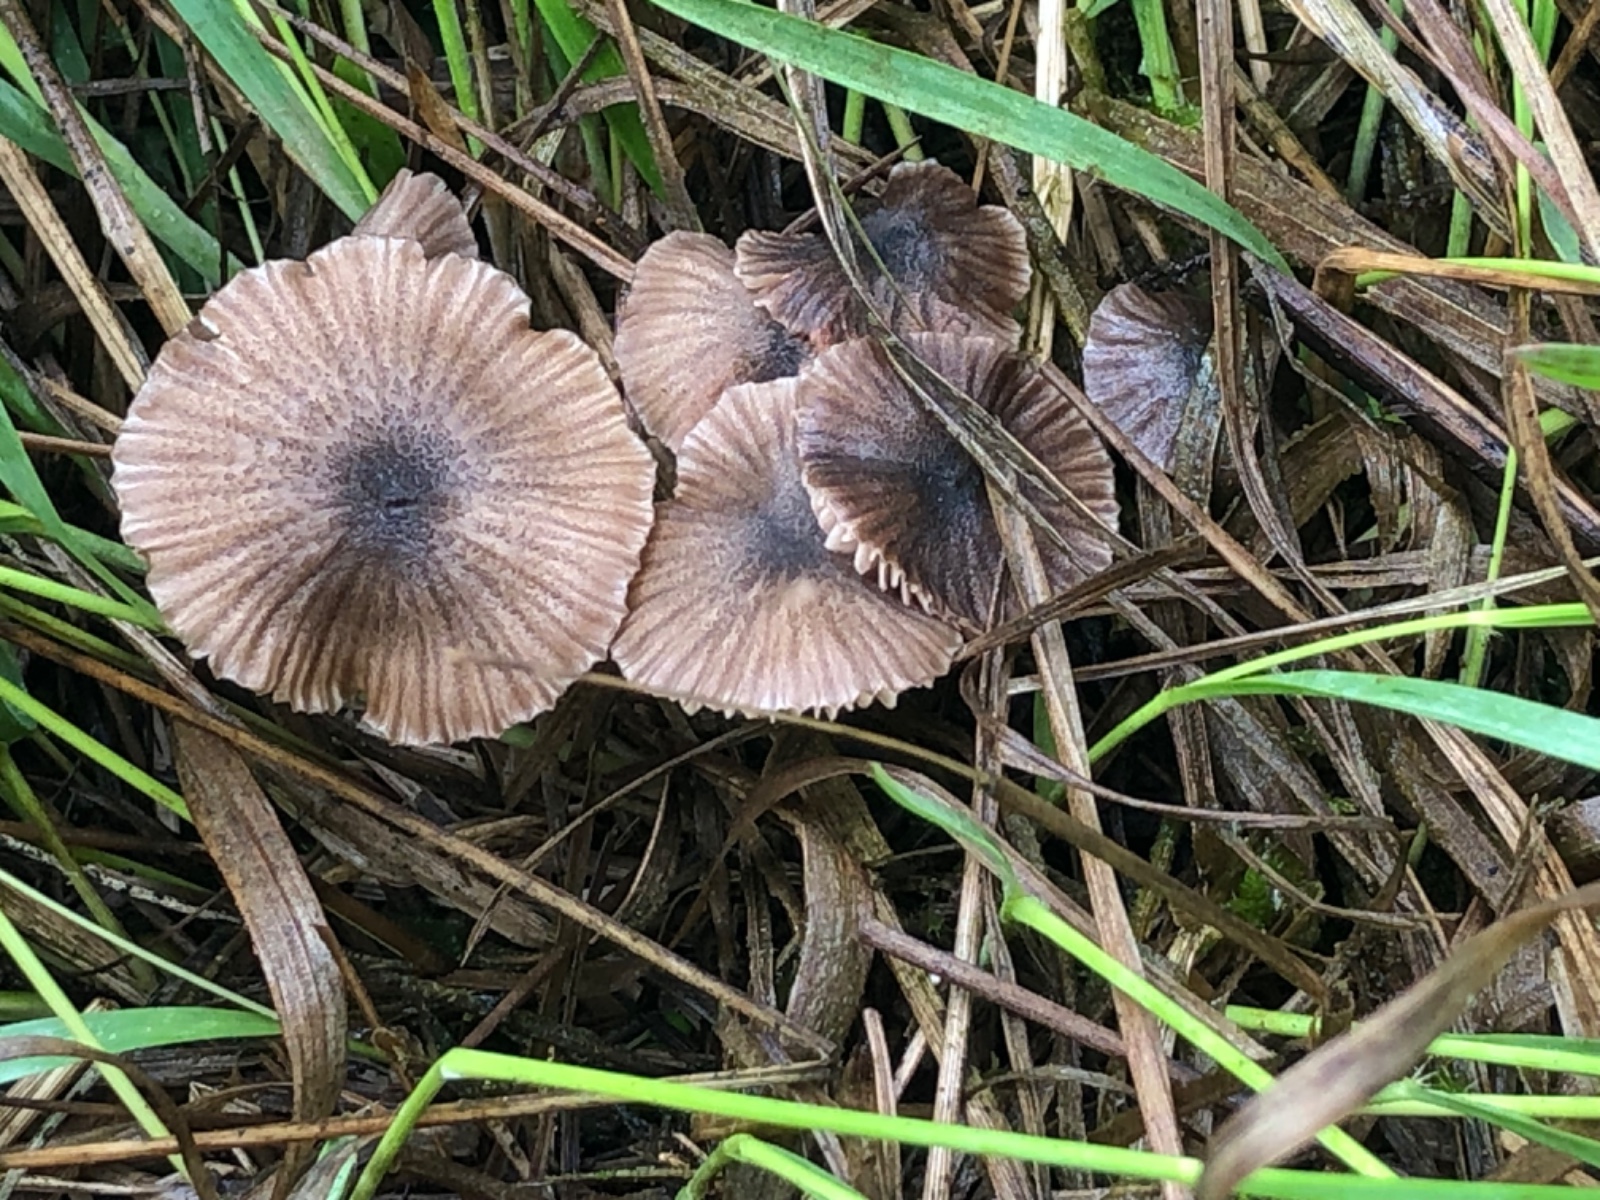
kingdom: Fungi
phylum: Basidiomycota
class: Agaricomycetes
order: Agaricales
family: Entolomataceae
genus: Entoloma
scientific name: Entoloma
